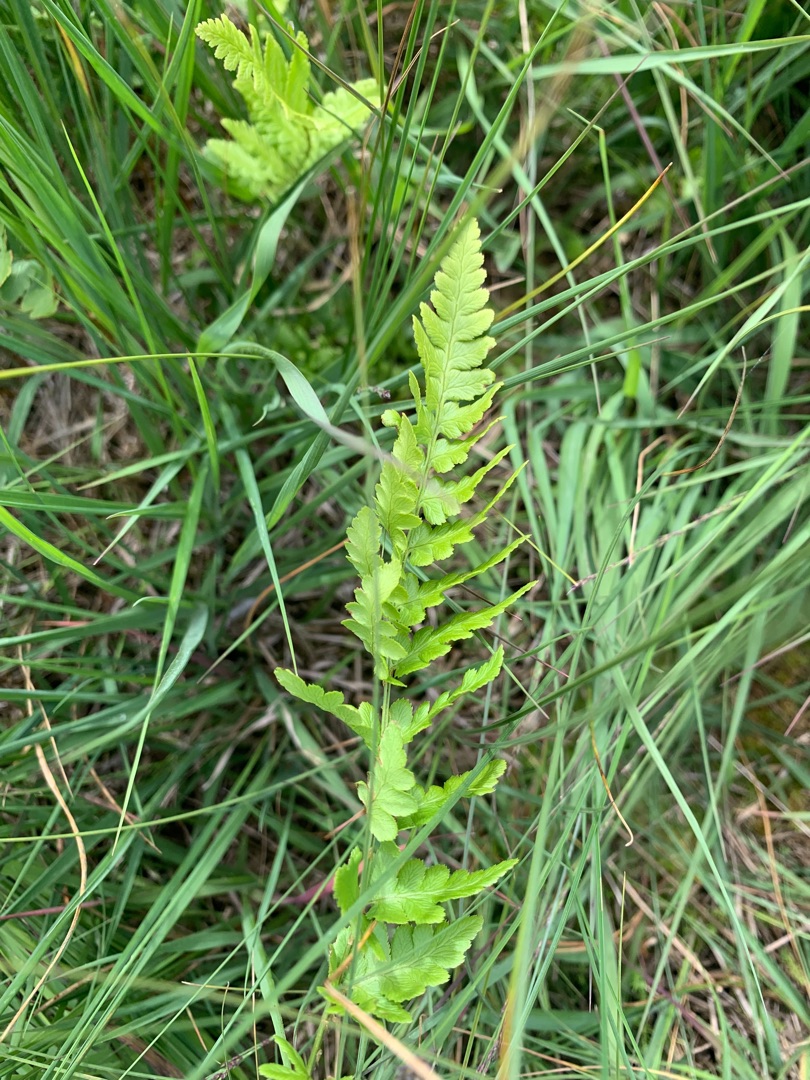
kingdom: Plantae
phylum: Tracheophyta
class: Polypodiopsida
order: Polypodiales
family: Dryopteridaceae
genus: Dryopteris
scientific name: Dryopteris cristata
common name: Butfinnet mangeløv
